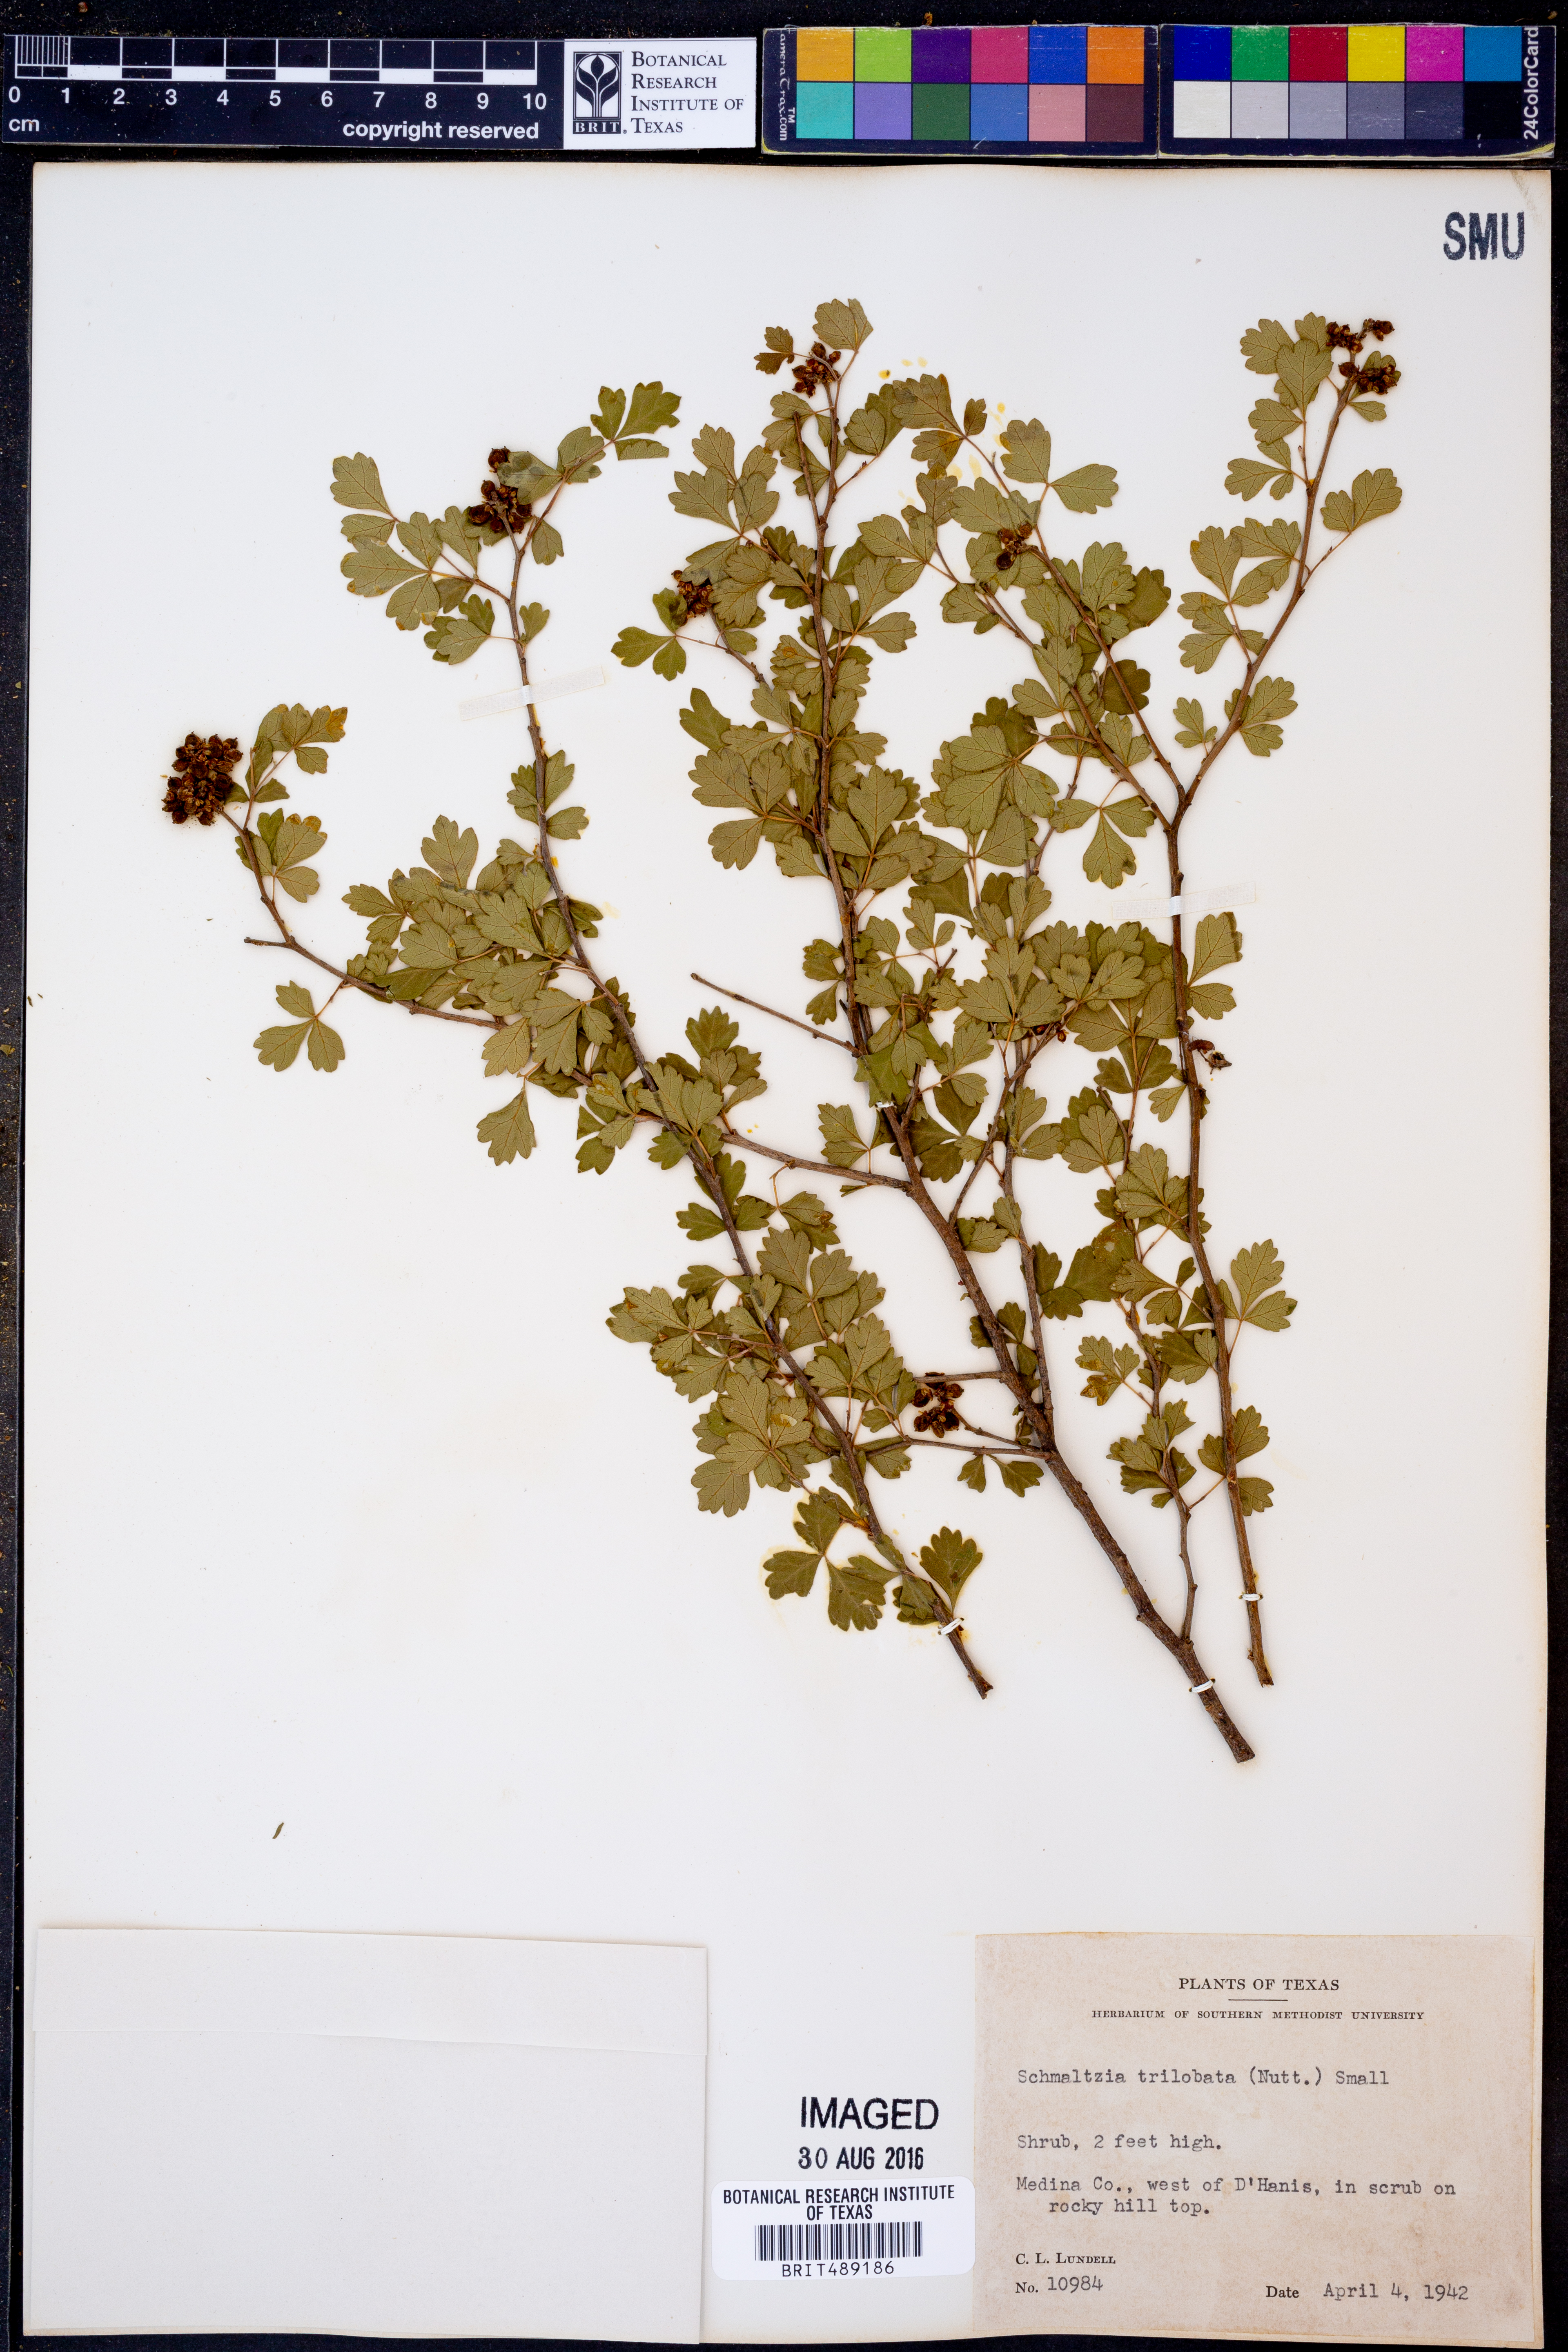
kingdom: Plantae
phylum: Tracheophyta
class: Magnoliopsida
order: Sapindales
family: Anacardiaceae
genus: Rhus
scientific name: Rhus trilobata
